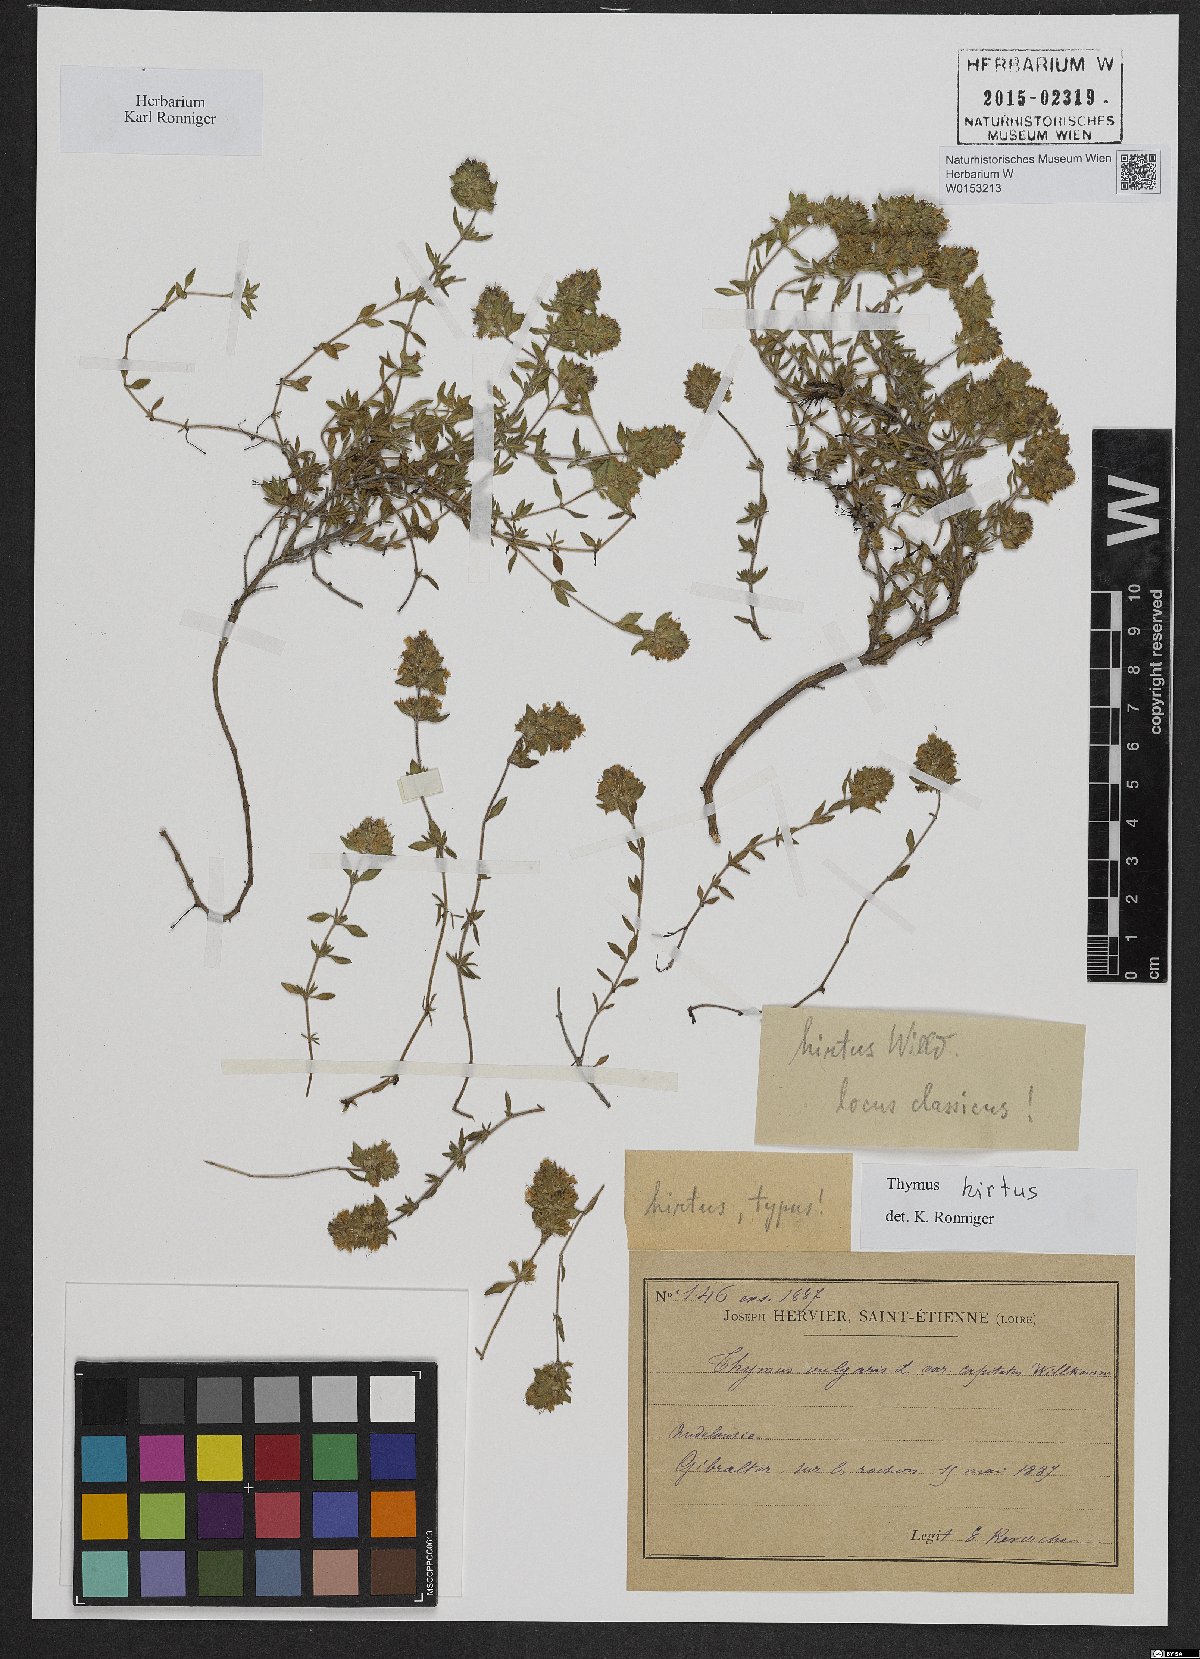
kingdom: Plantae
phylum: Tracheophyta
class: Magnoliopsida
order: Lamiales
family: Lamiaceae
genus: Thymus
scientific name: Thymus willdenowii
